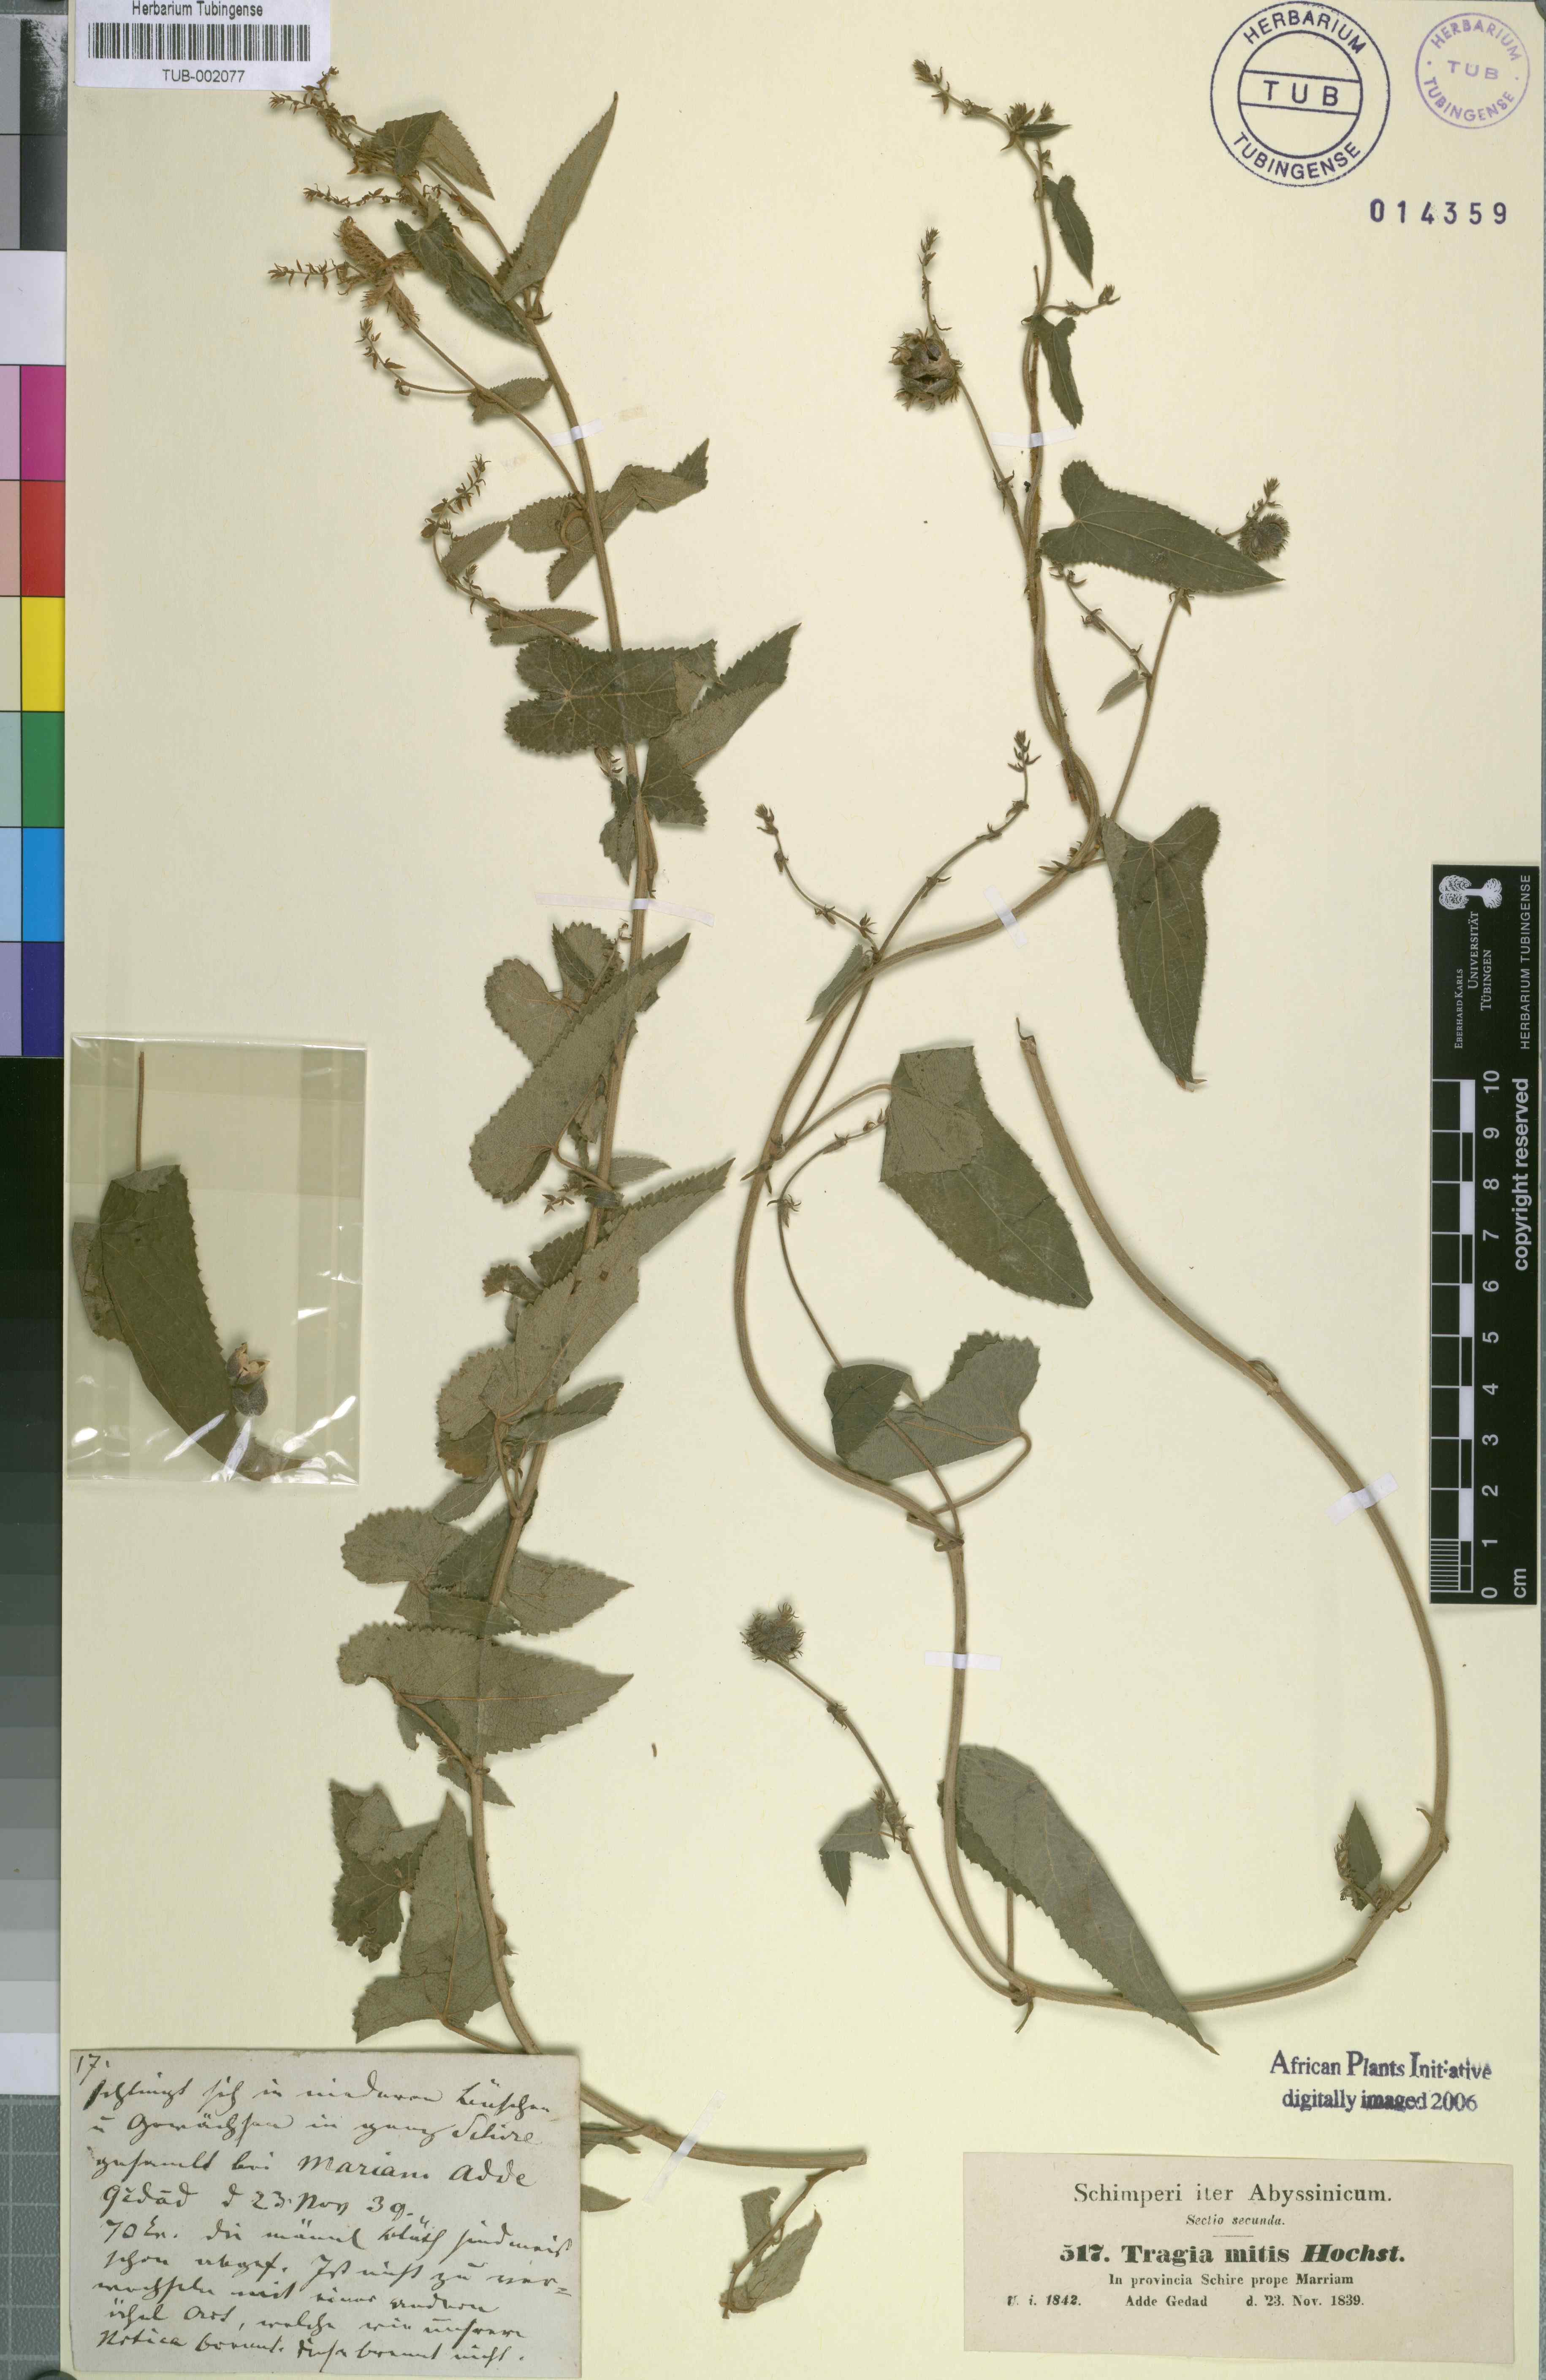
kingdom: Plantae
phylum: Tracheophyta
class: Magnoliopsida
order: Malpighiales
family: Euphorbiaceae
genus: Tragia
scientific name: Tragia mitis
